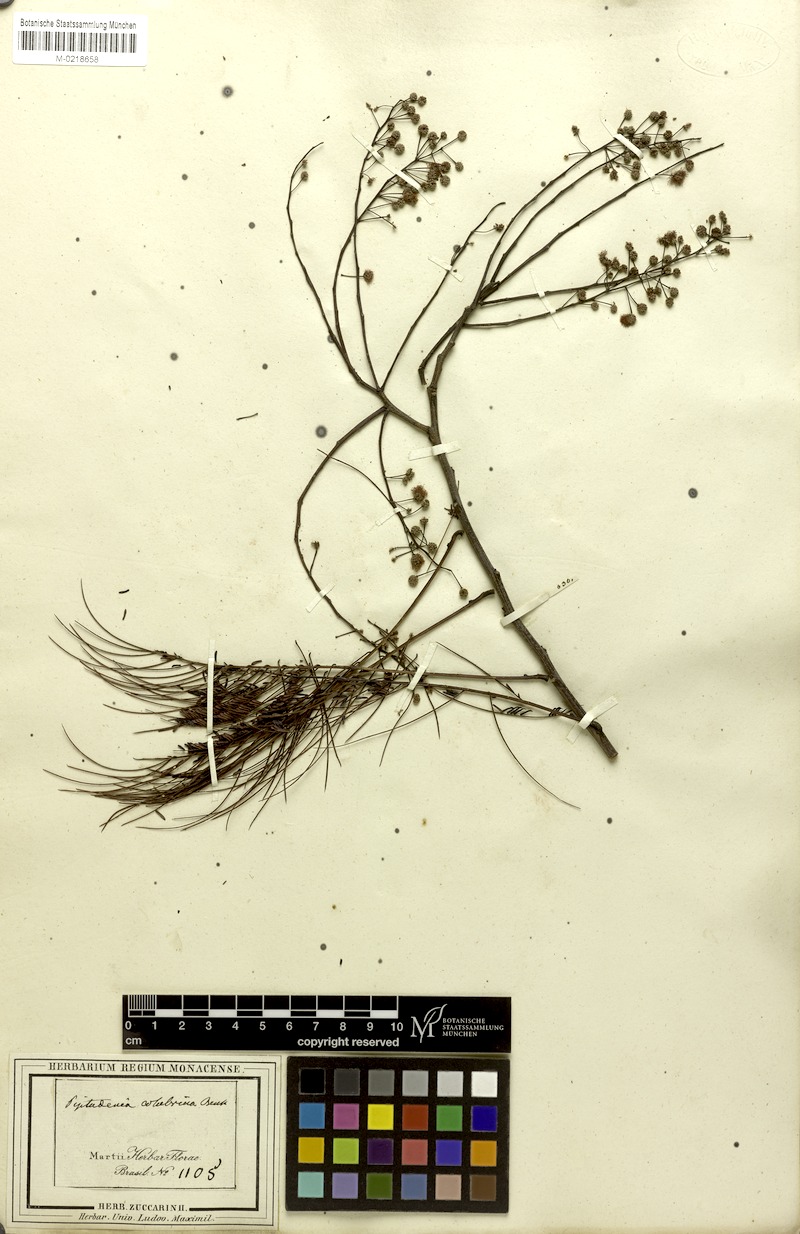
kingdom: Plantae
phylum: Tracheophyta
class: Magnoliopsida
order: Fabales
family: Fabaceae
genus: Anadenanthera
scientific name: Anadenanthera colubrina
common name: Curupay
